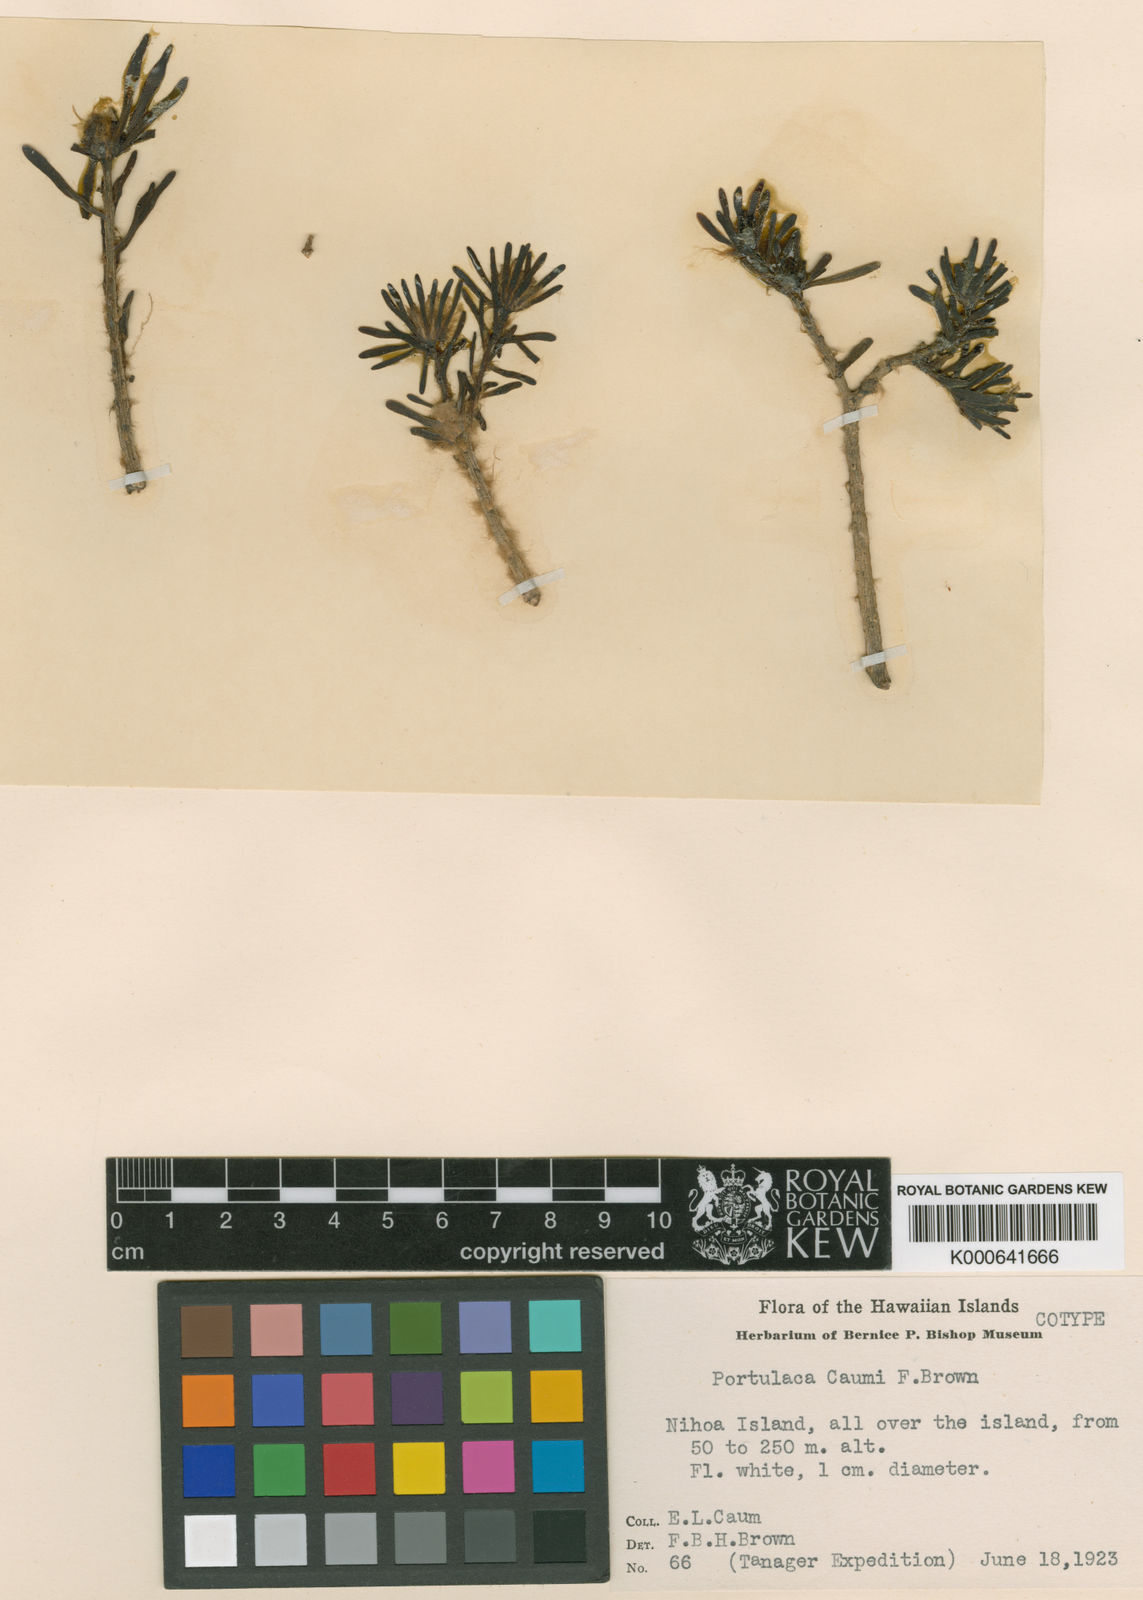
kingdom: Plantae
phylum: Tracheophyta
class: Magnoliopsida
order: Caryophyllales
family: Portulacaceae
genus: Portulaca
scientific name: Portulaca pilosa
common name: Kiss me quick
